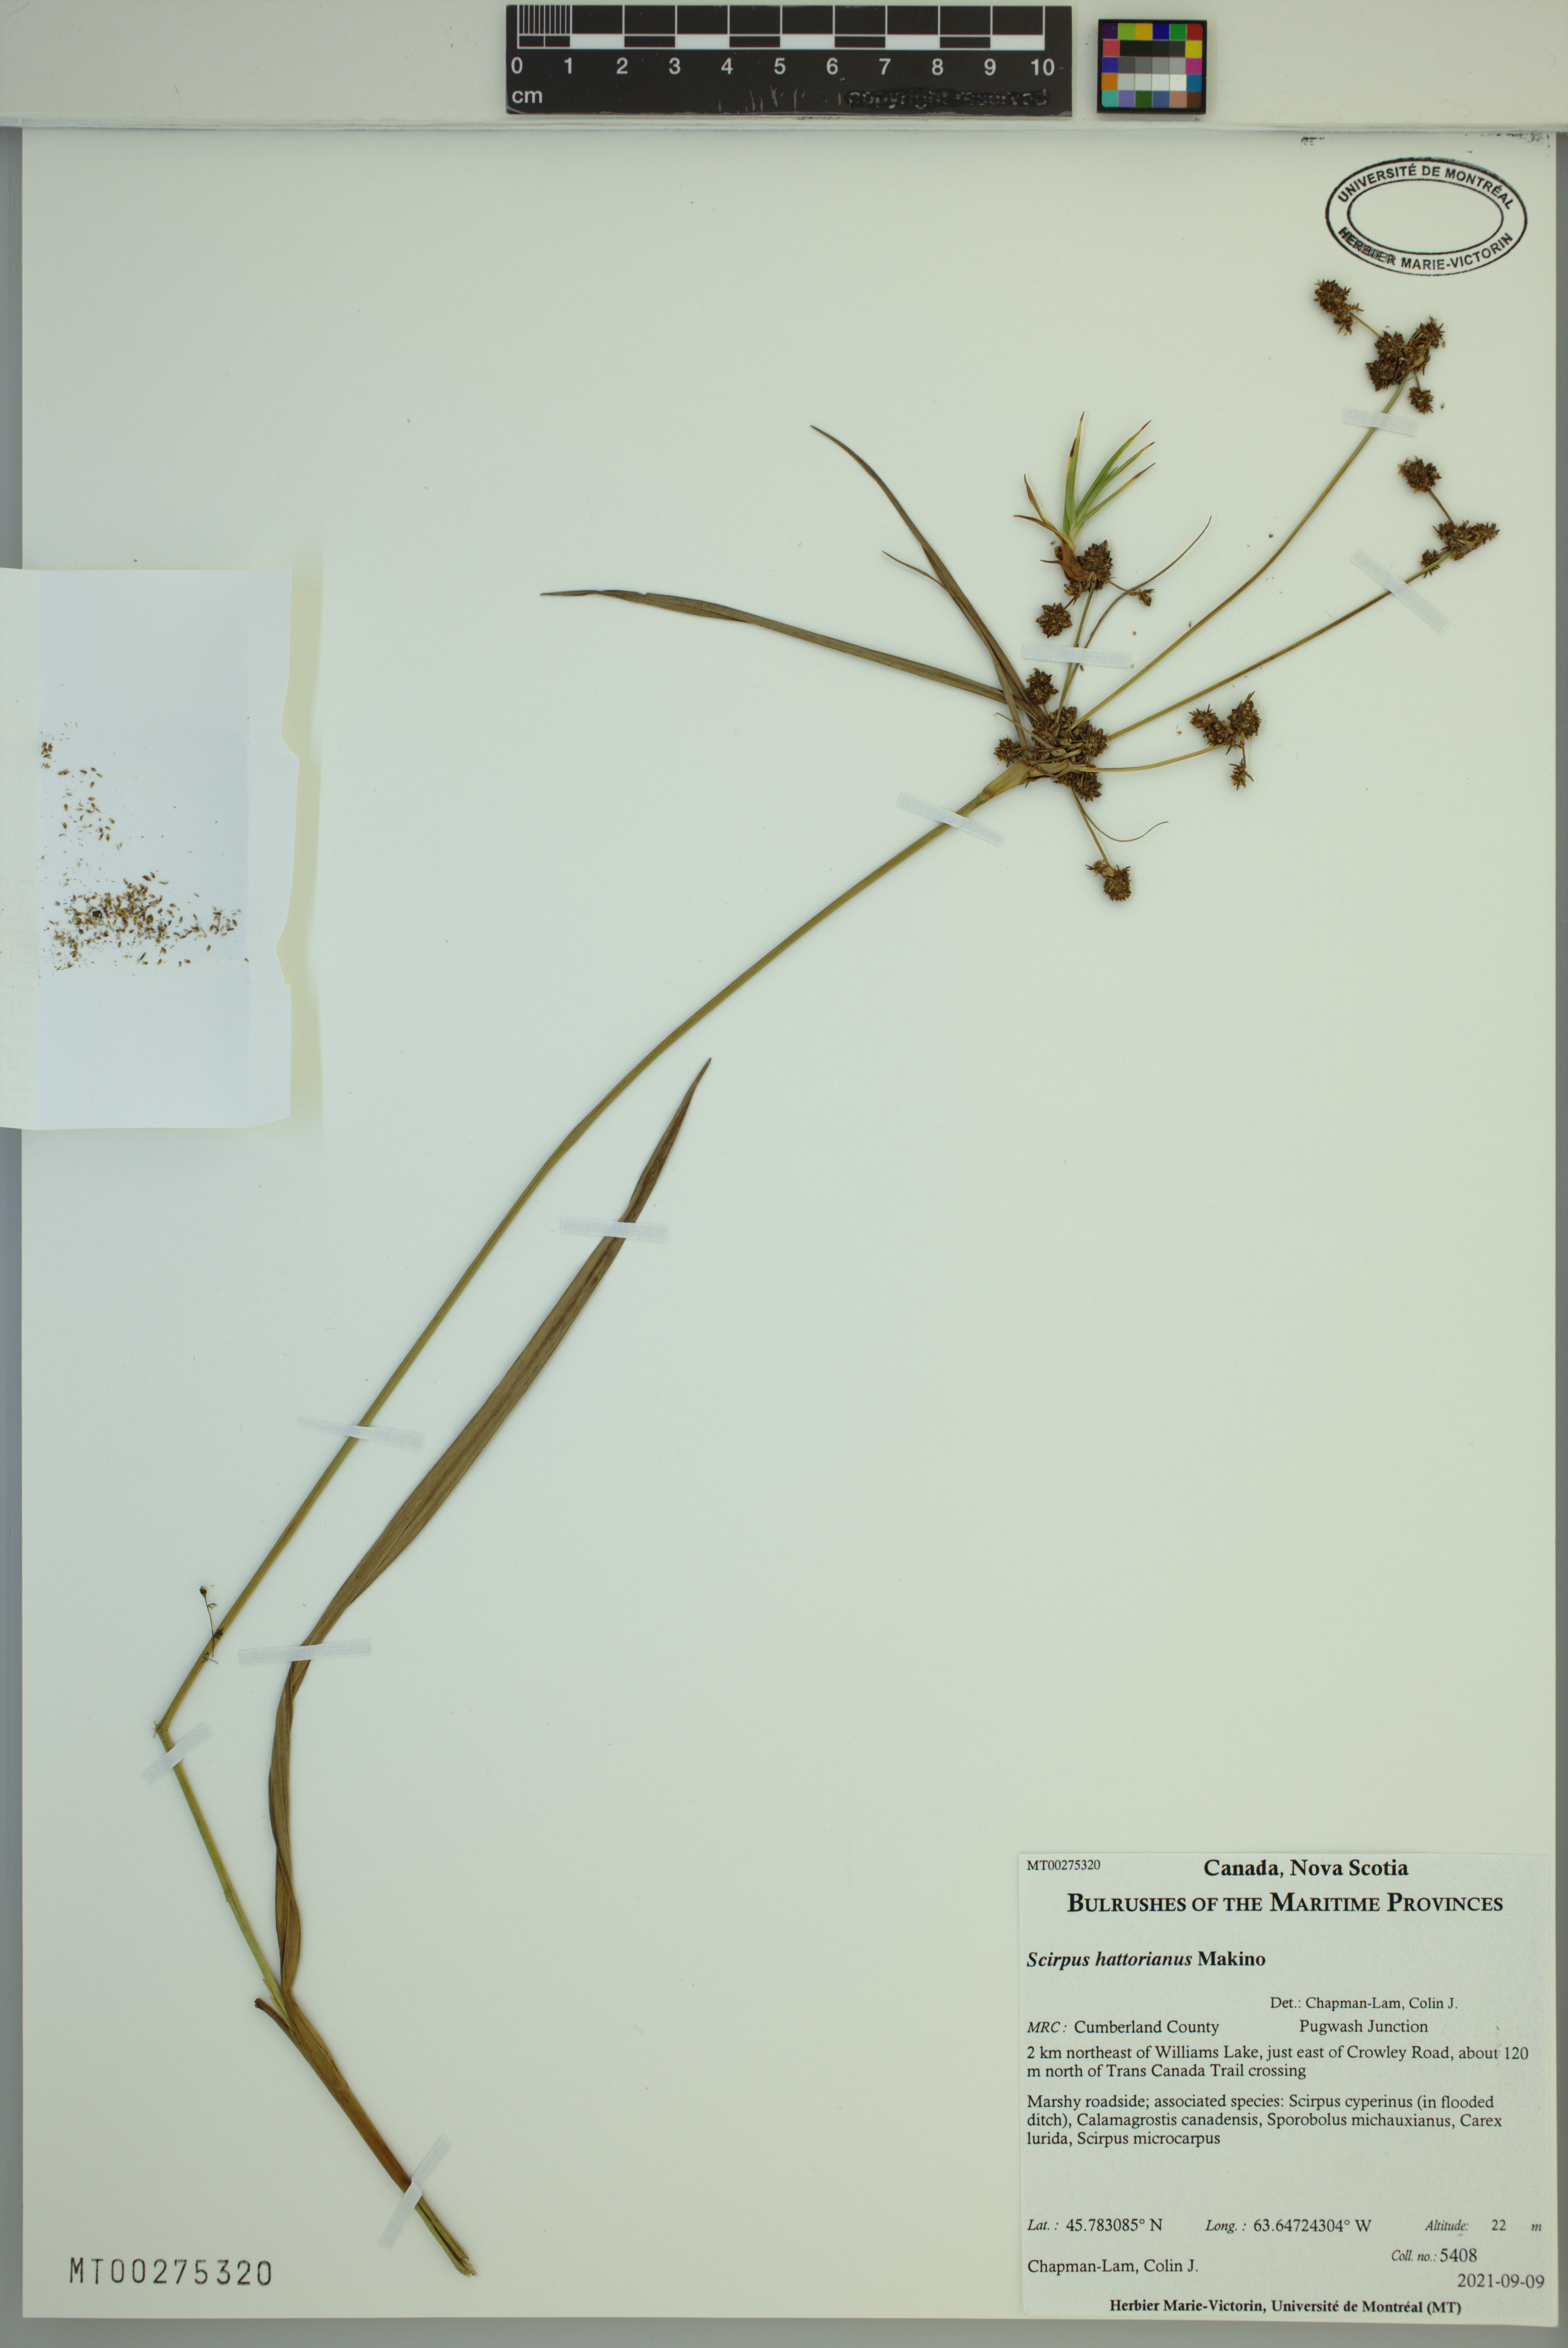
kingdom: Plantae
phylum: Tracheophyta
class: Liliopsida
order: Poales
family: Cyperaceae
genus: Scirpus
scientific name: Scirpus hattorianus
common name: Early dark-green bulrush
